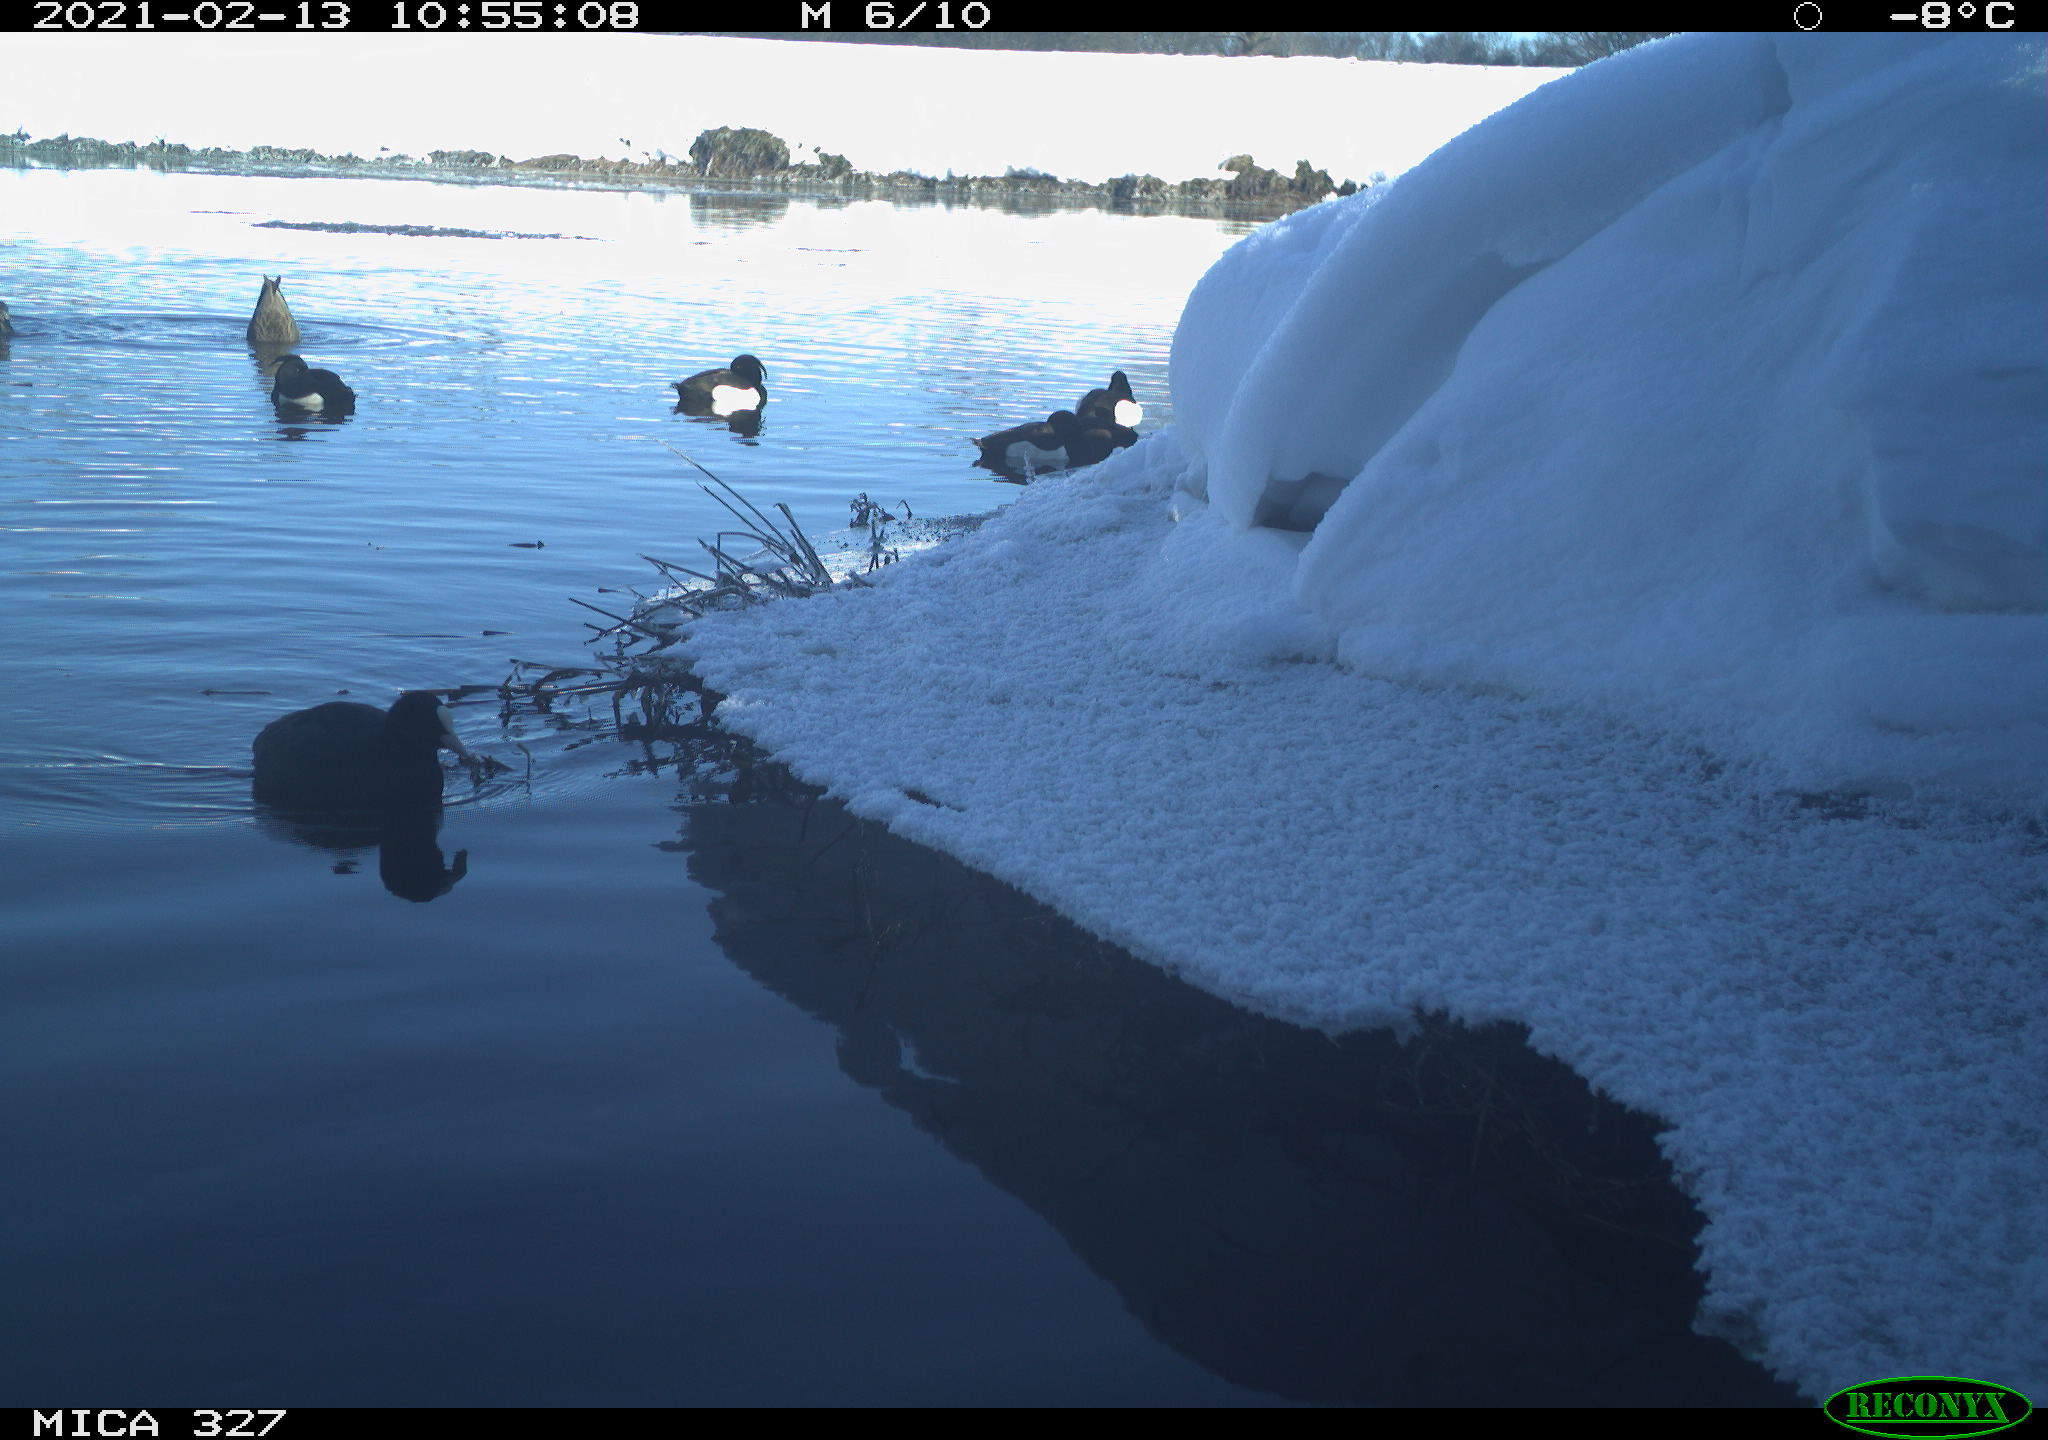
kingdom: Animalia
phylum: Chordata
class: Aves
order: Anseriformes
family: Anatidae
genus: Anas
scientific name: Anas
